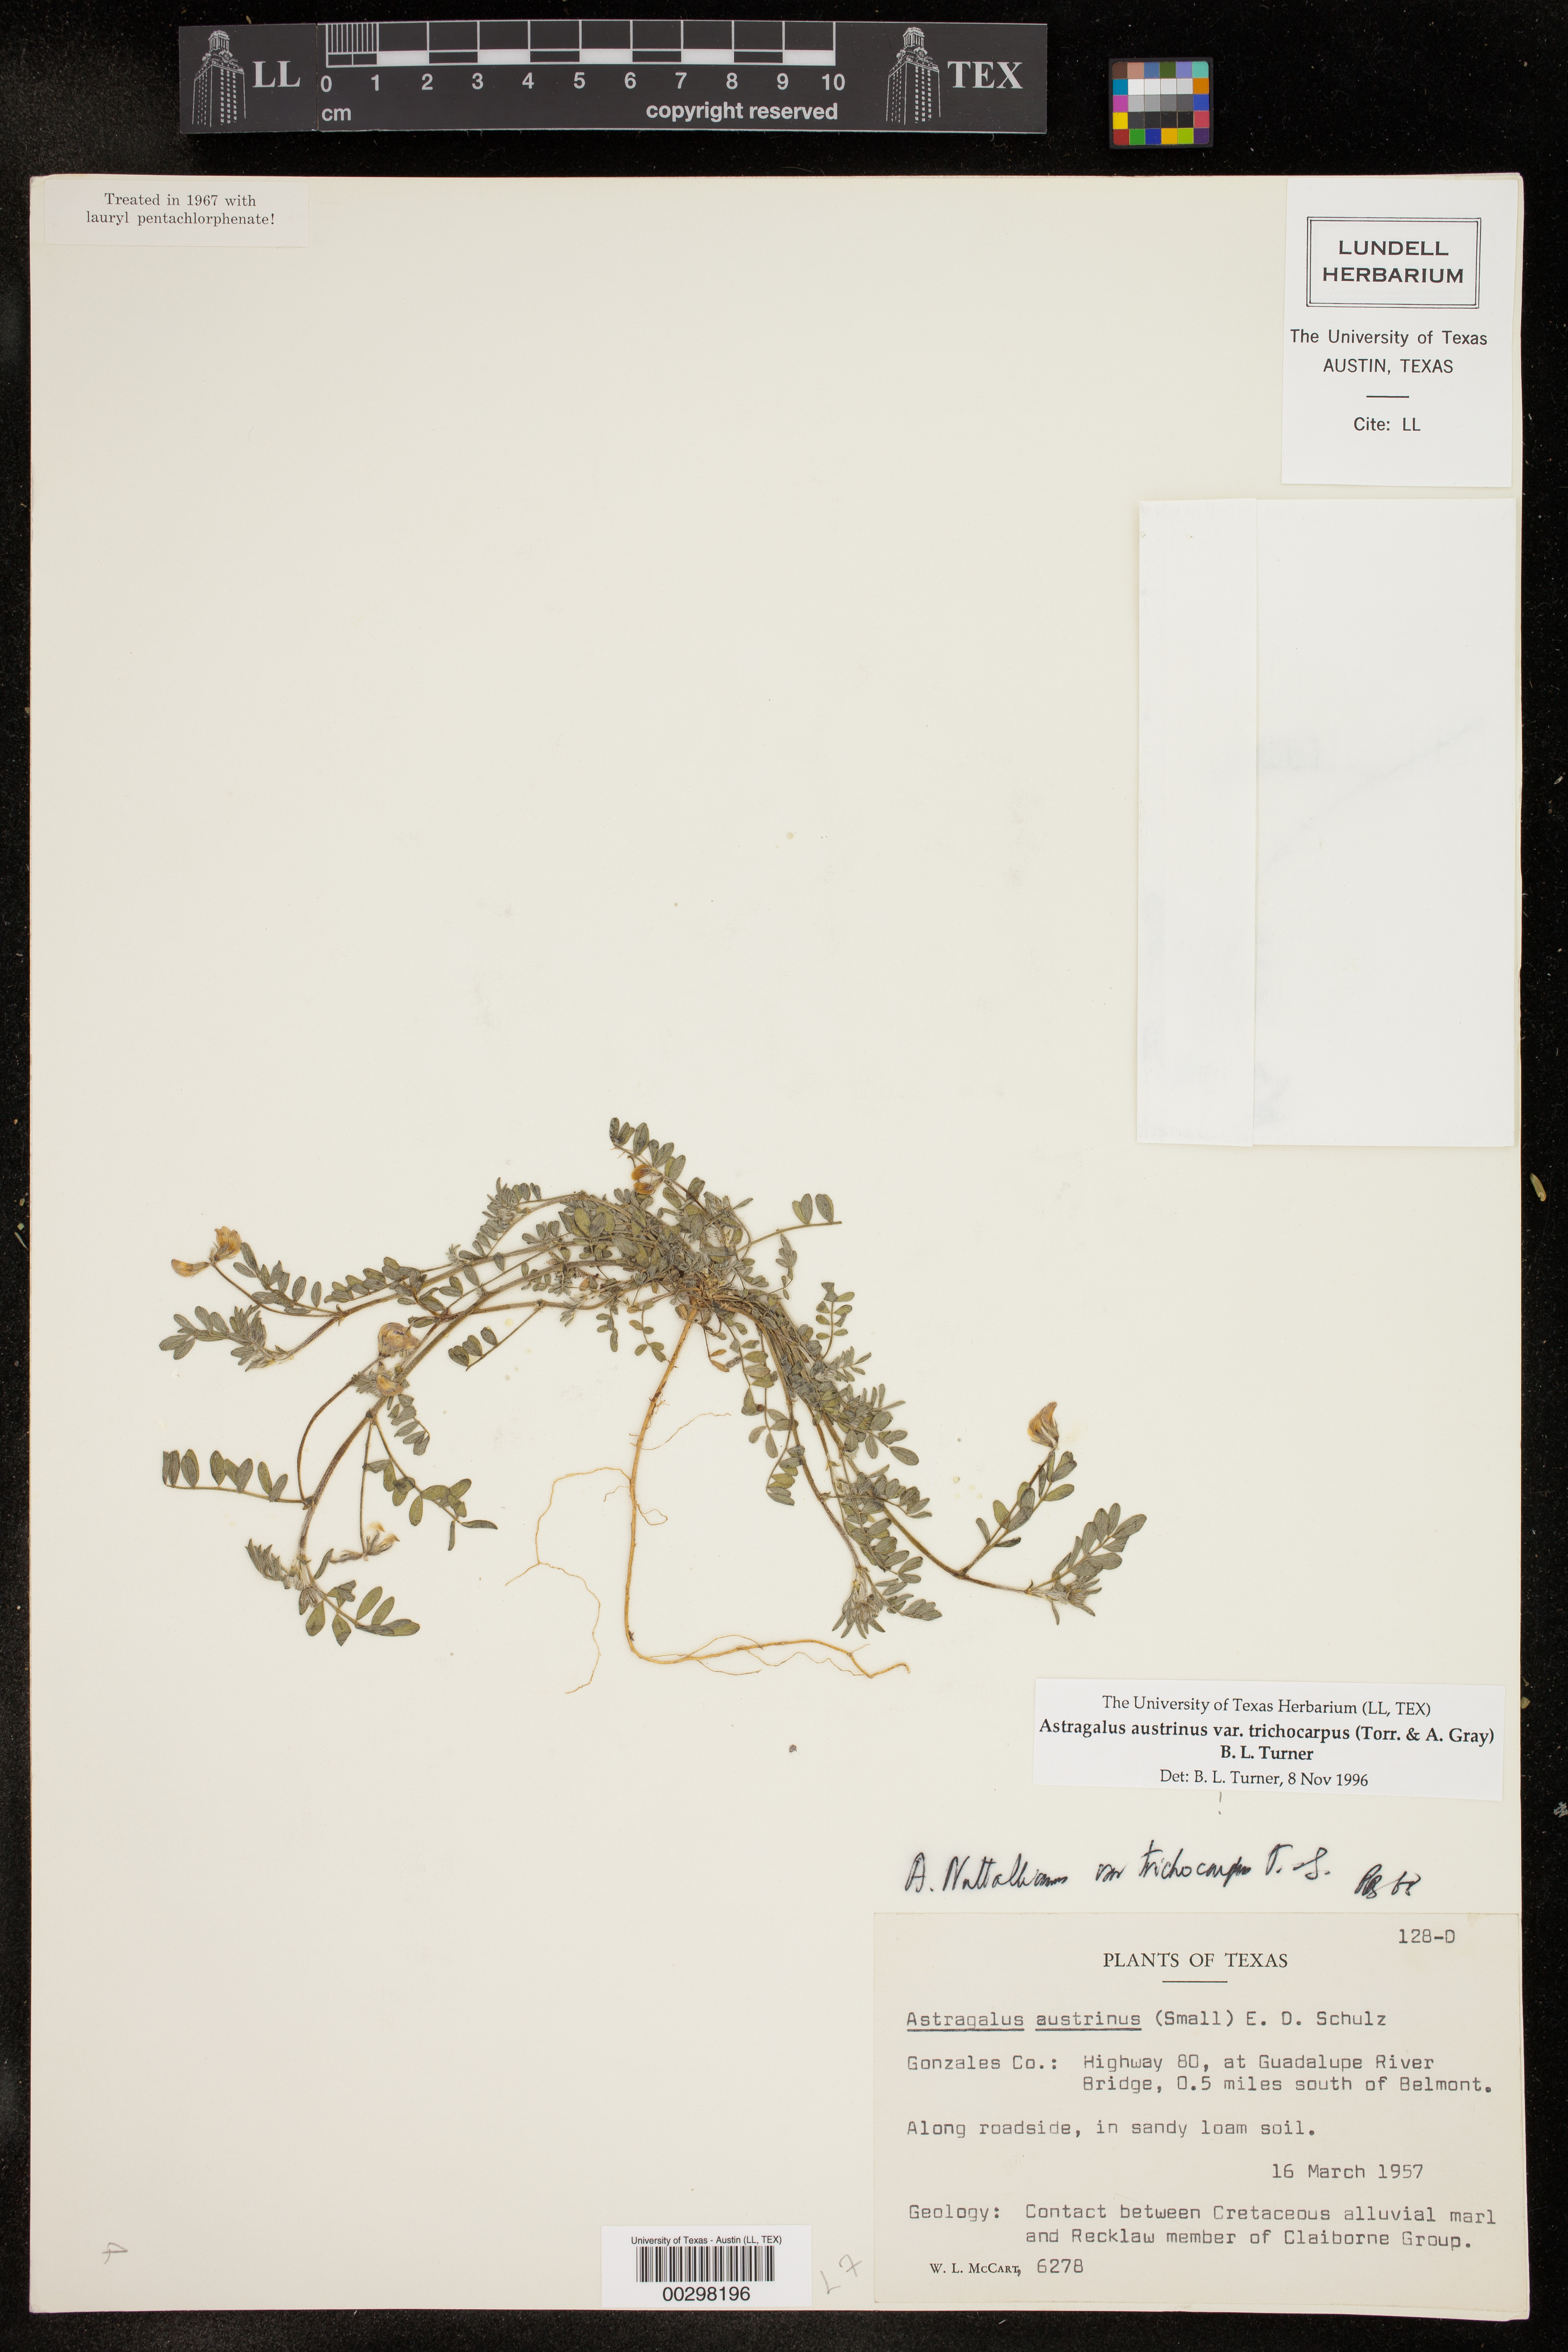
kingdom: Plantae
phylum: Tracheophyta
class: Magnoliopsida
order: Fabales
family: Fabaceae
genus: Astragalus
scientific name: Astragalus nuttallianus
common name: Smallflowered milkvetch
